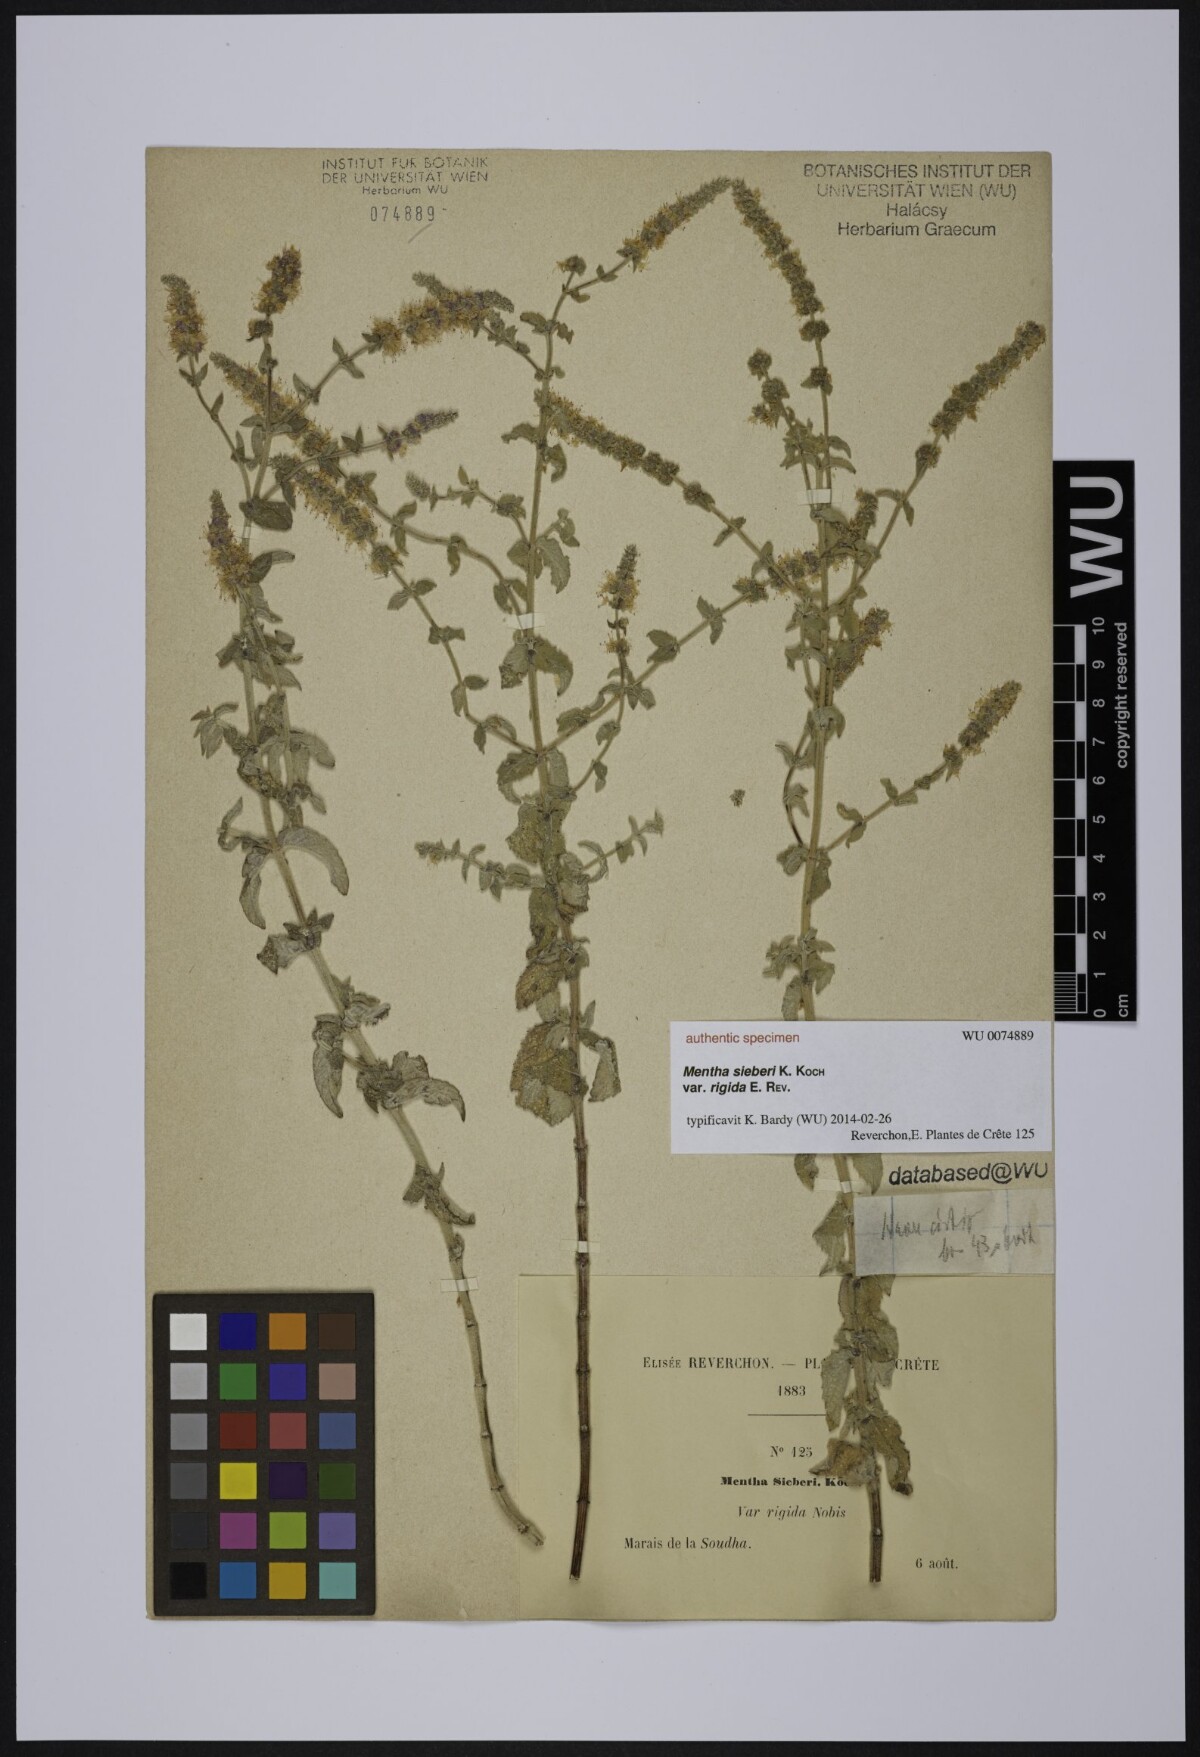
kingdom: Plantae
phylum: Tracheophyta
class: Magnoliopsida
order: Lamiales
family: Lamiaceae
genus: Mentha
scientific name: Mentha spicata
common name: Spearmint
